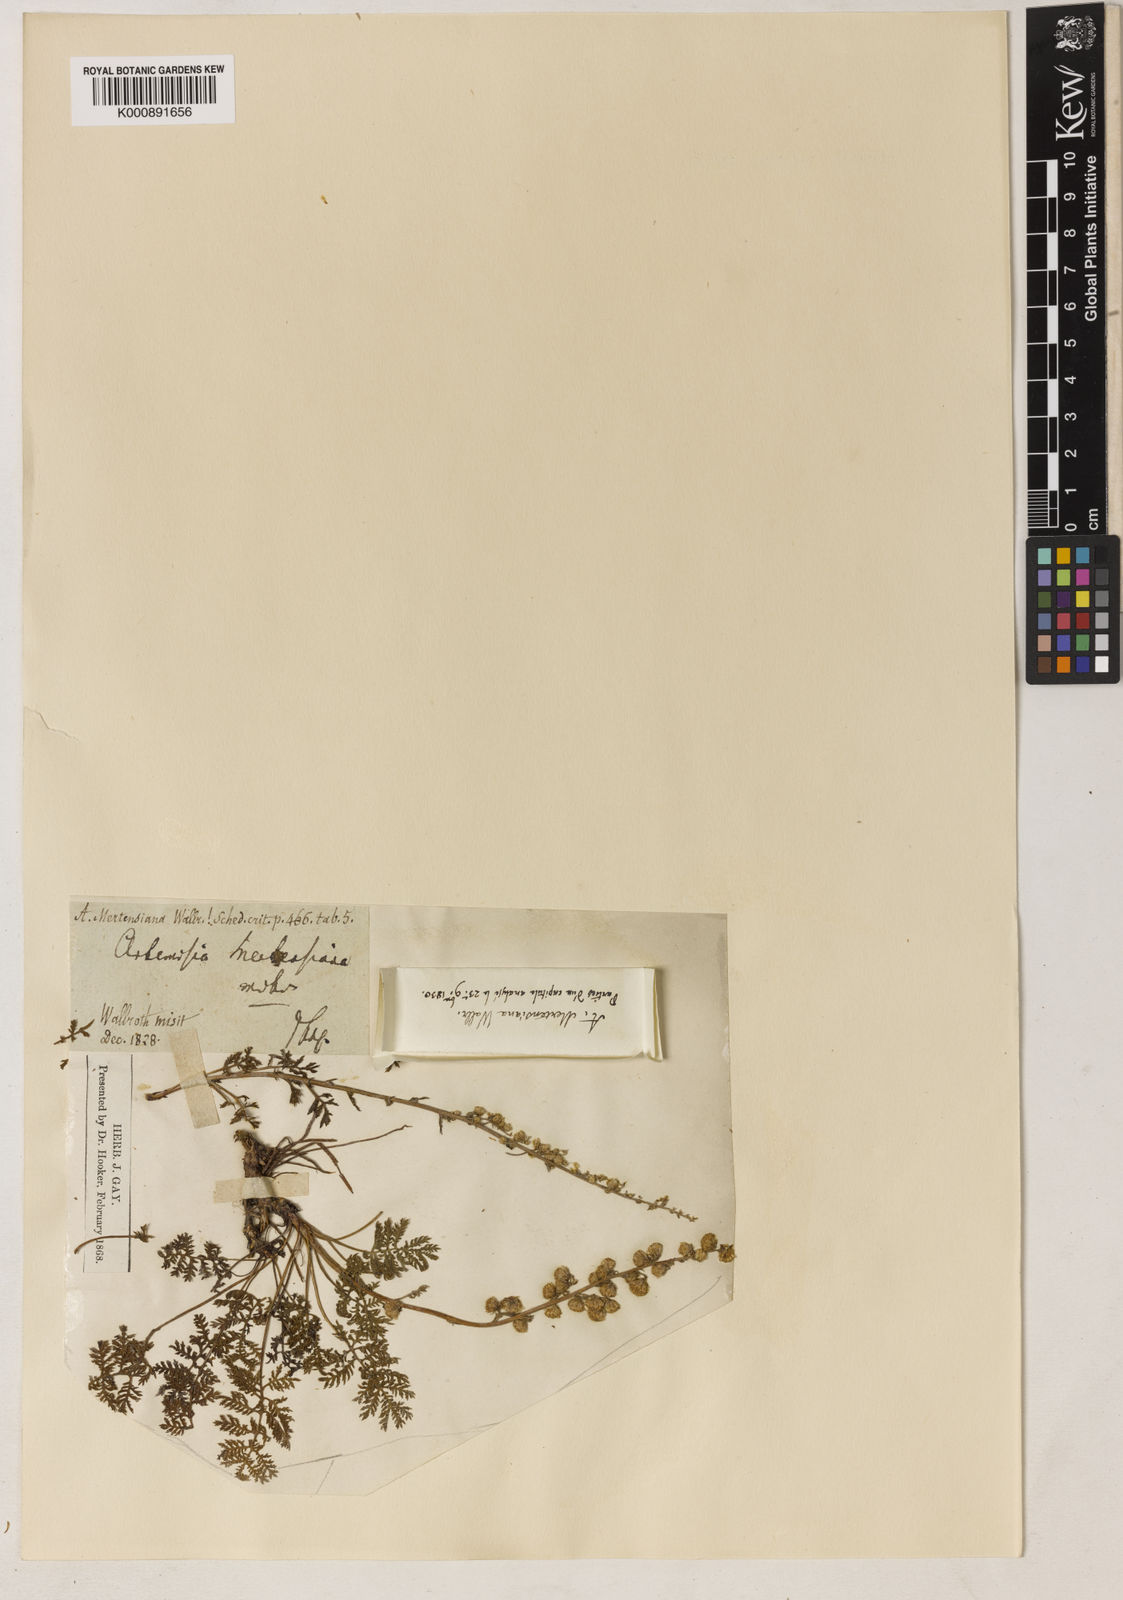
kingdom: Plantae
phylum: Tracheophyta
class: Magnoliopsida
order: Asterales
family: Asteraceae
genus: Artemisia
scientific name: Artemisia laciniata
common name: Siberian wormwood
